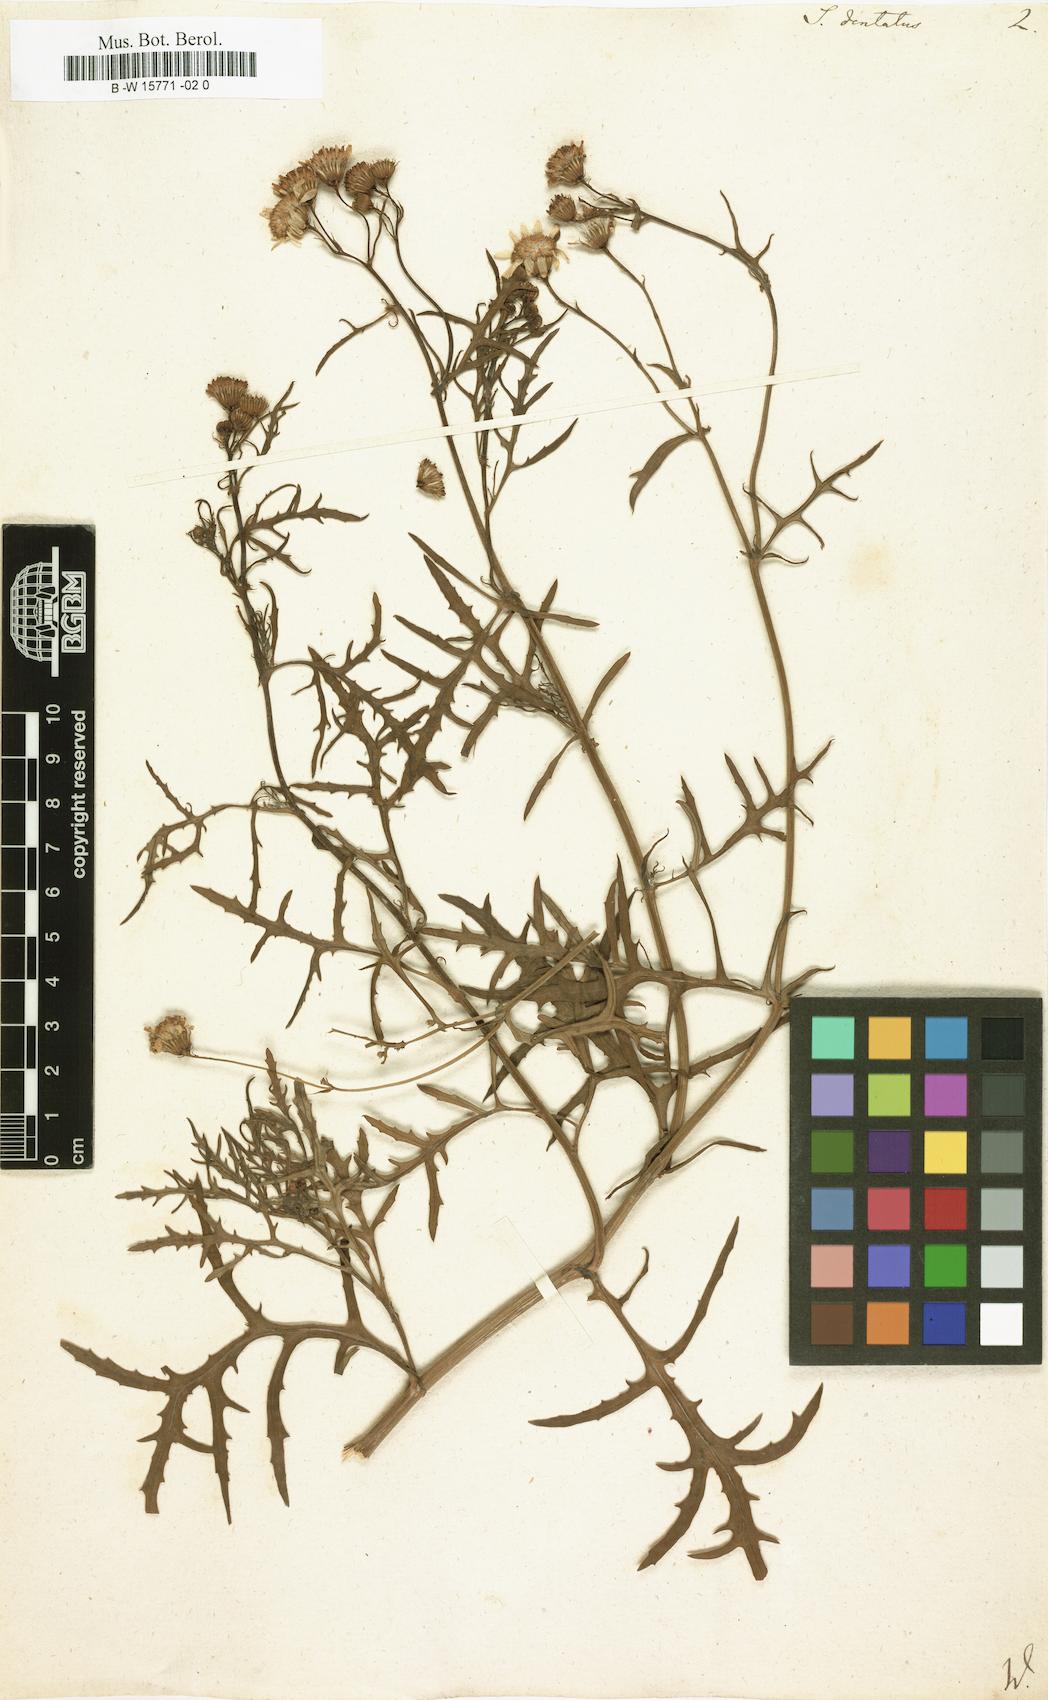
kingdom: Plantae
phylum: Tracheophyta
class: Magnoliopsida
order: Asterales
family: Asteraceae
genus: Senecio
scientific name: Senecio grandiflorus
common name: Purple ragwort
